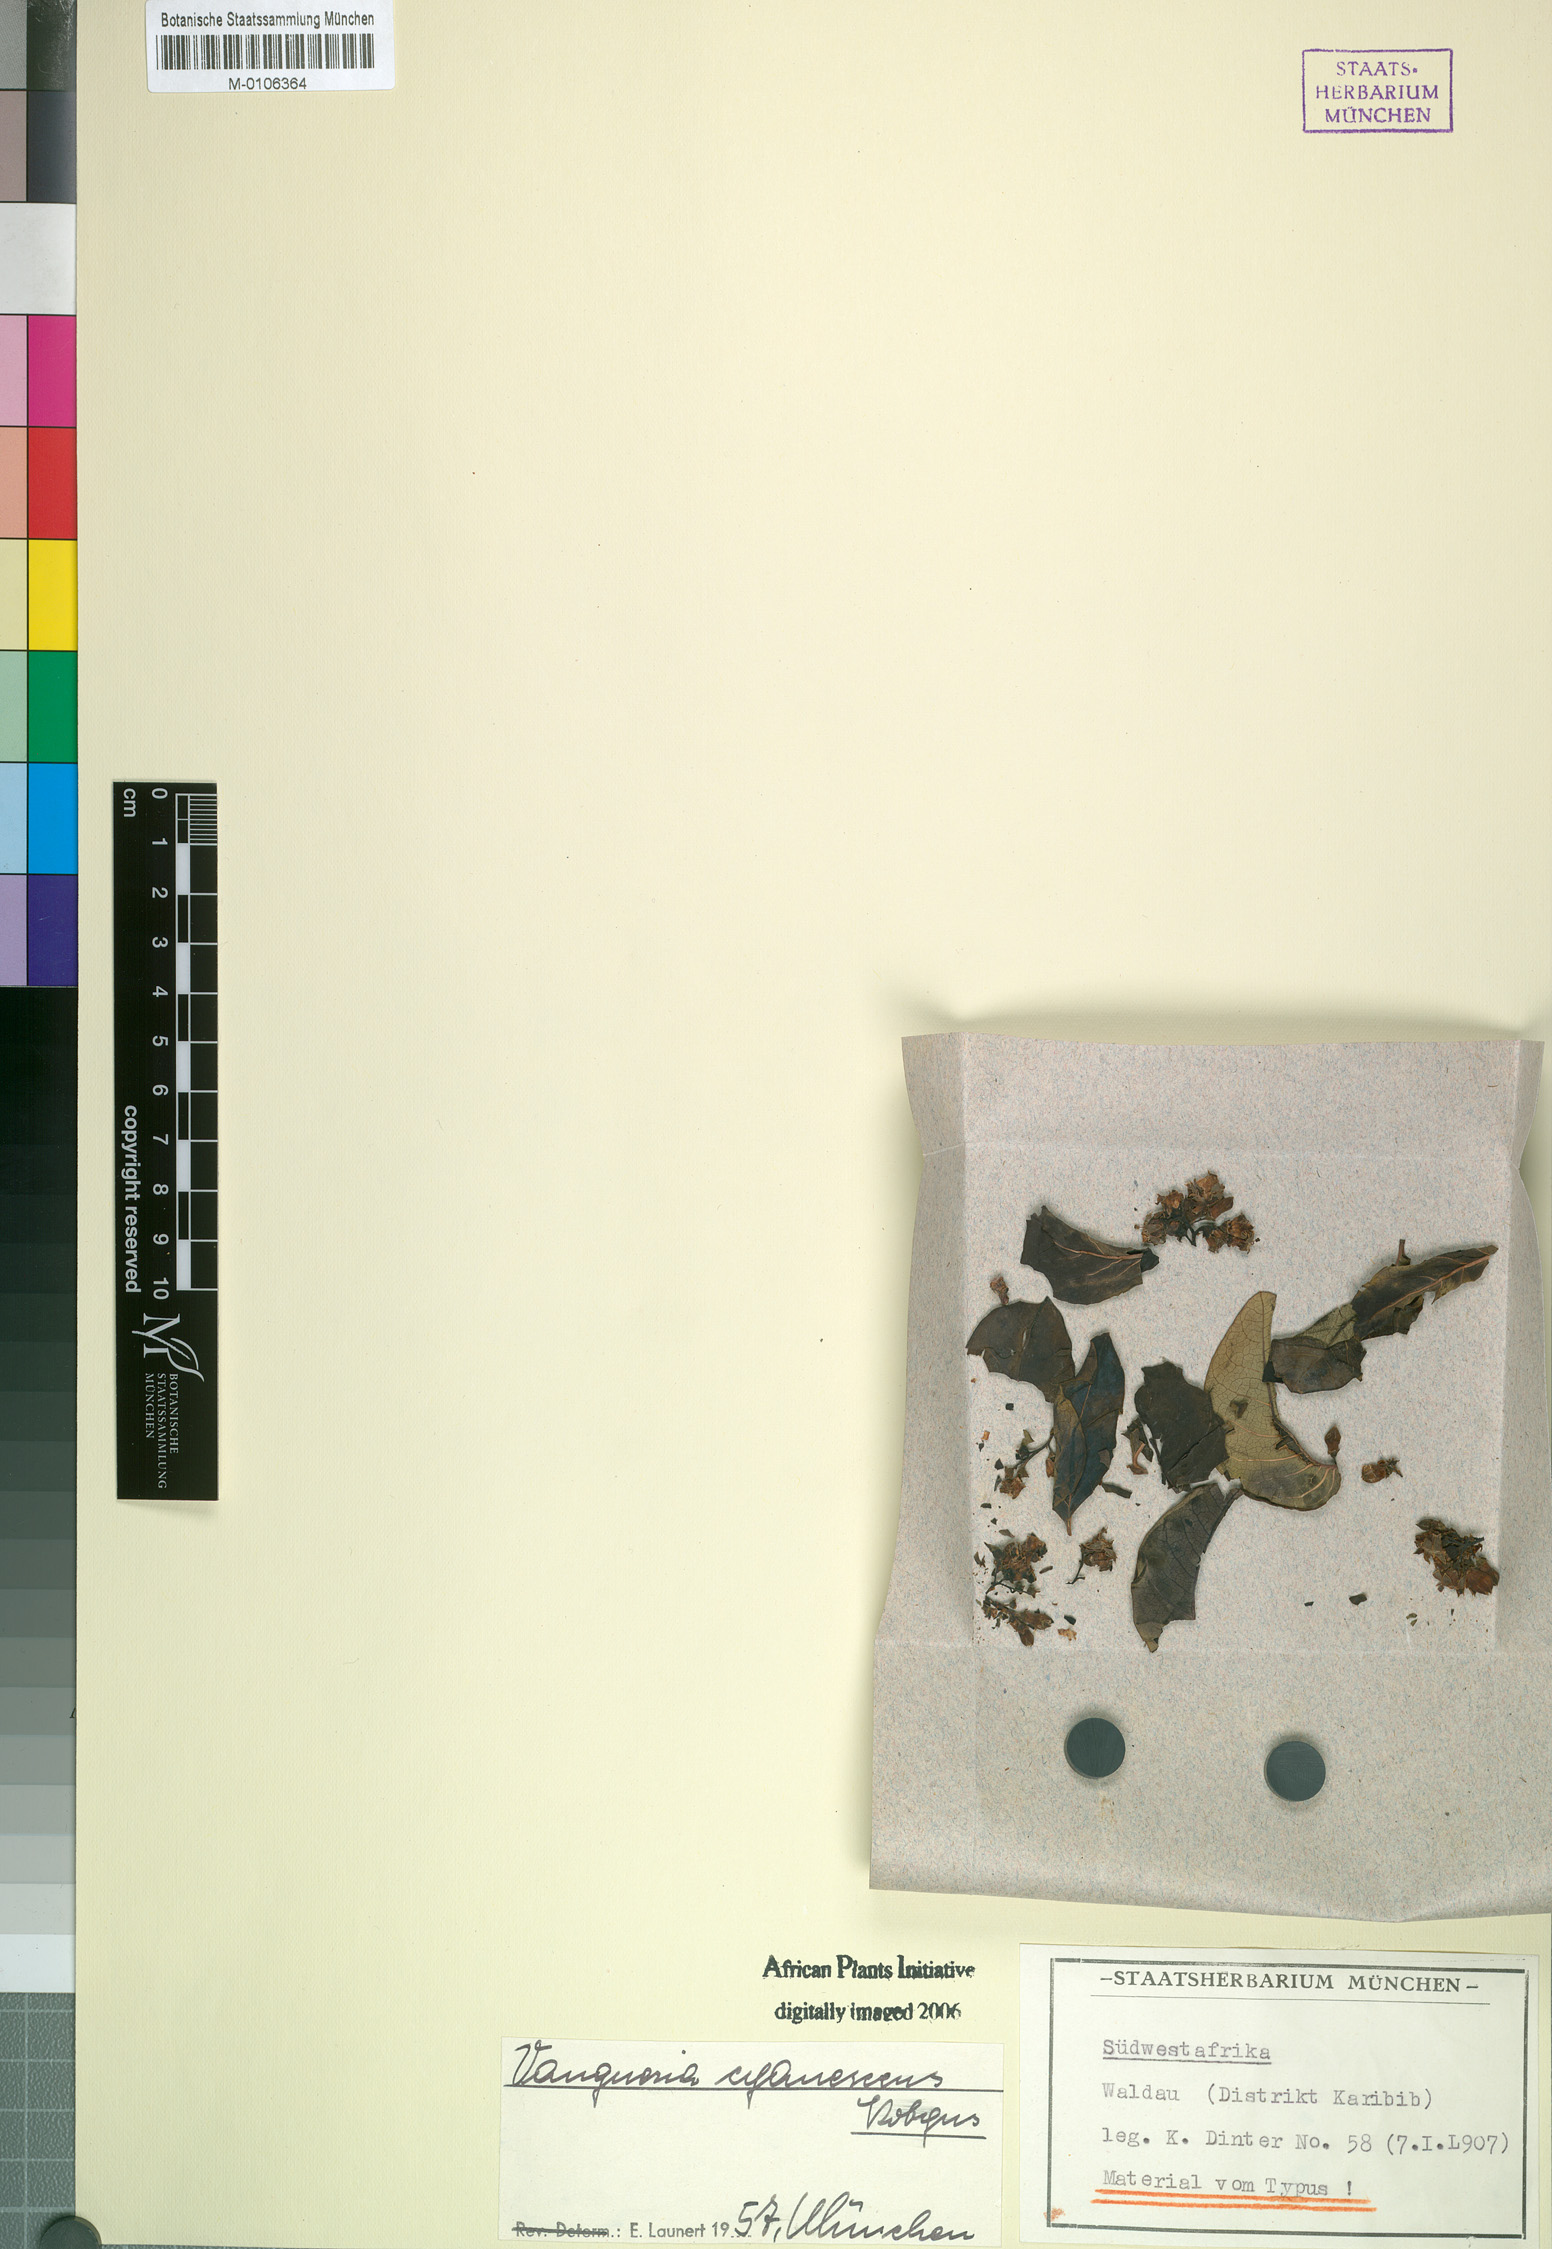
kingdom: Plantae
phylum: Tracheophyta
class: Magnoliopsida
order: Gentianales
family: Rubiaceae
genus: Vangueria
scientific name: Vangueria cyanescens
